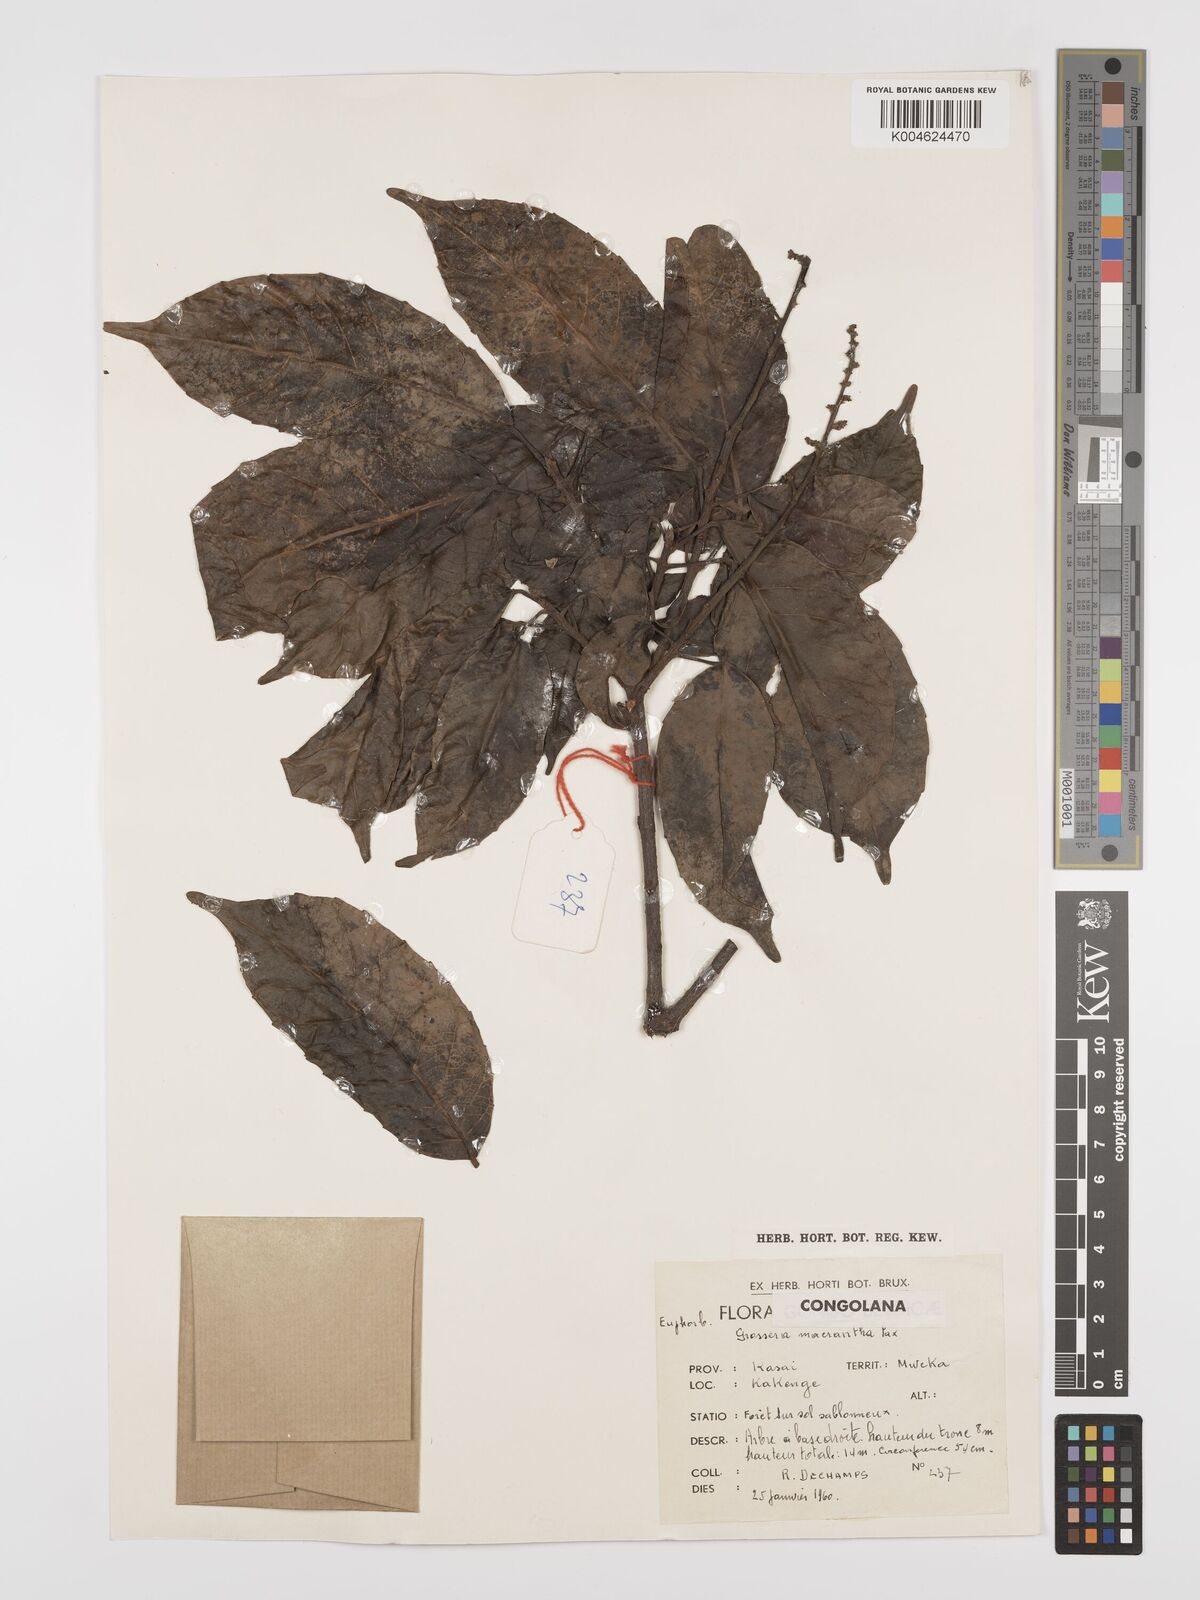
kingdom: Plantae
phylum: Tracheophyta
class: Magnoliopsida
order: Malpighiales
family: Euphorbiaceae
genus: Grossera
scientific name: Grossera macrantha
